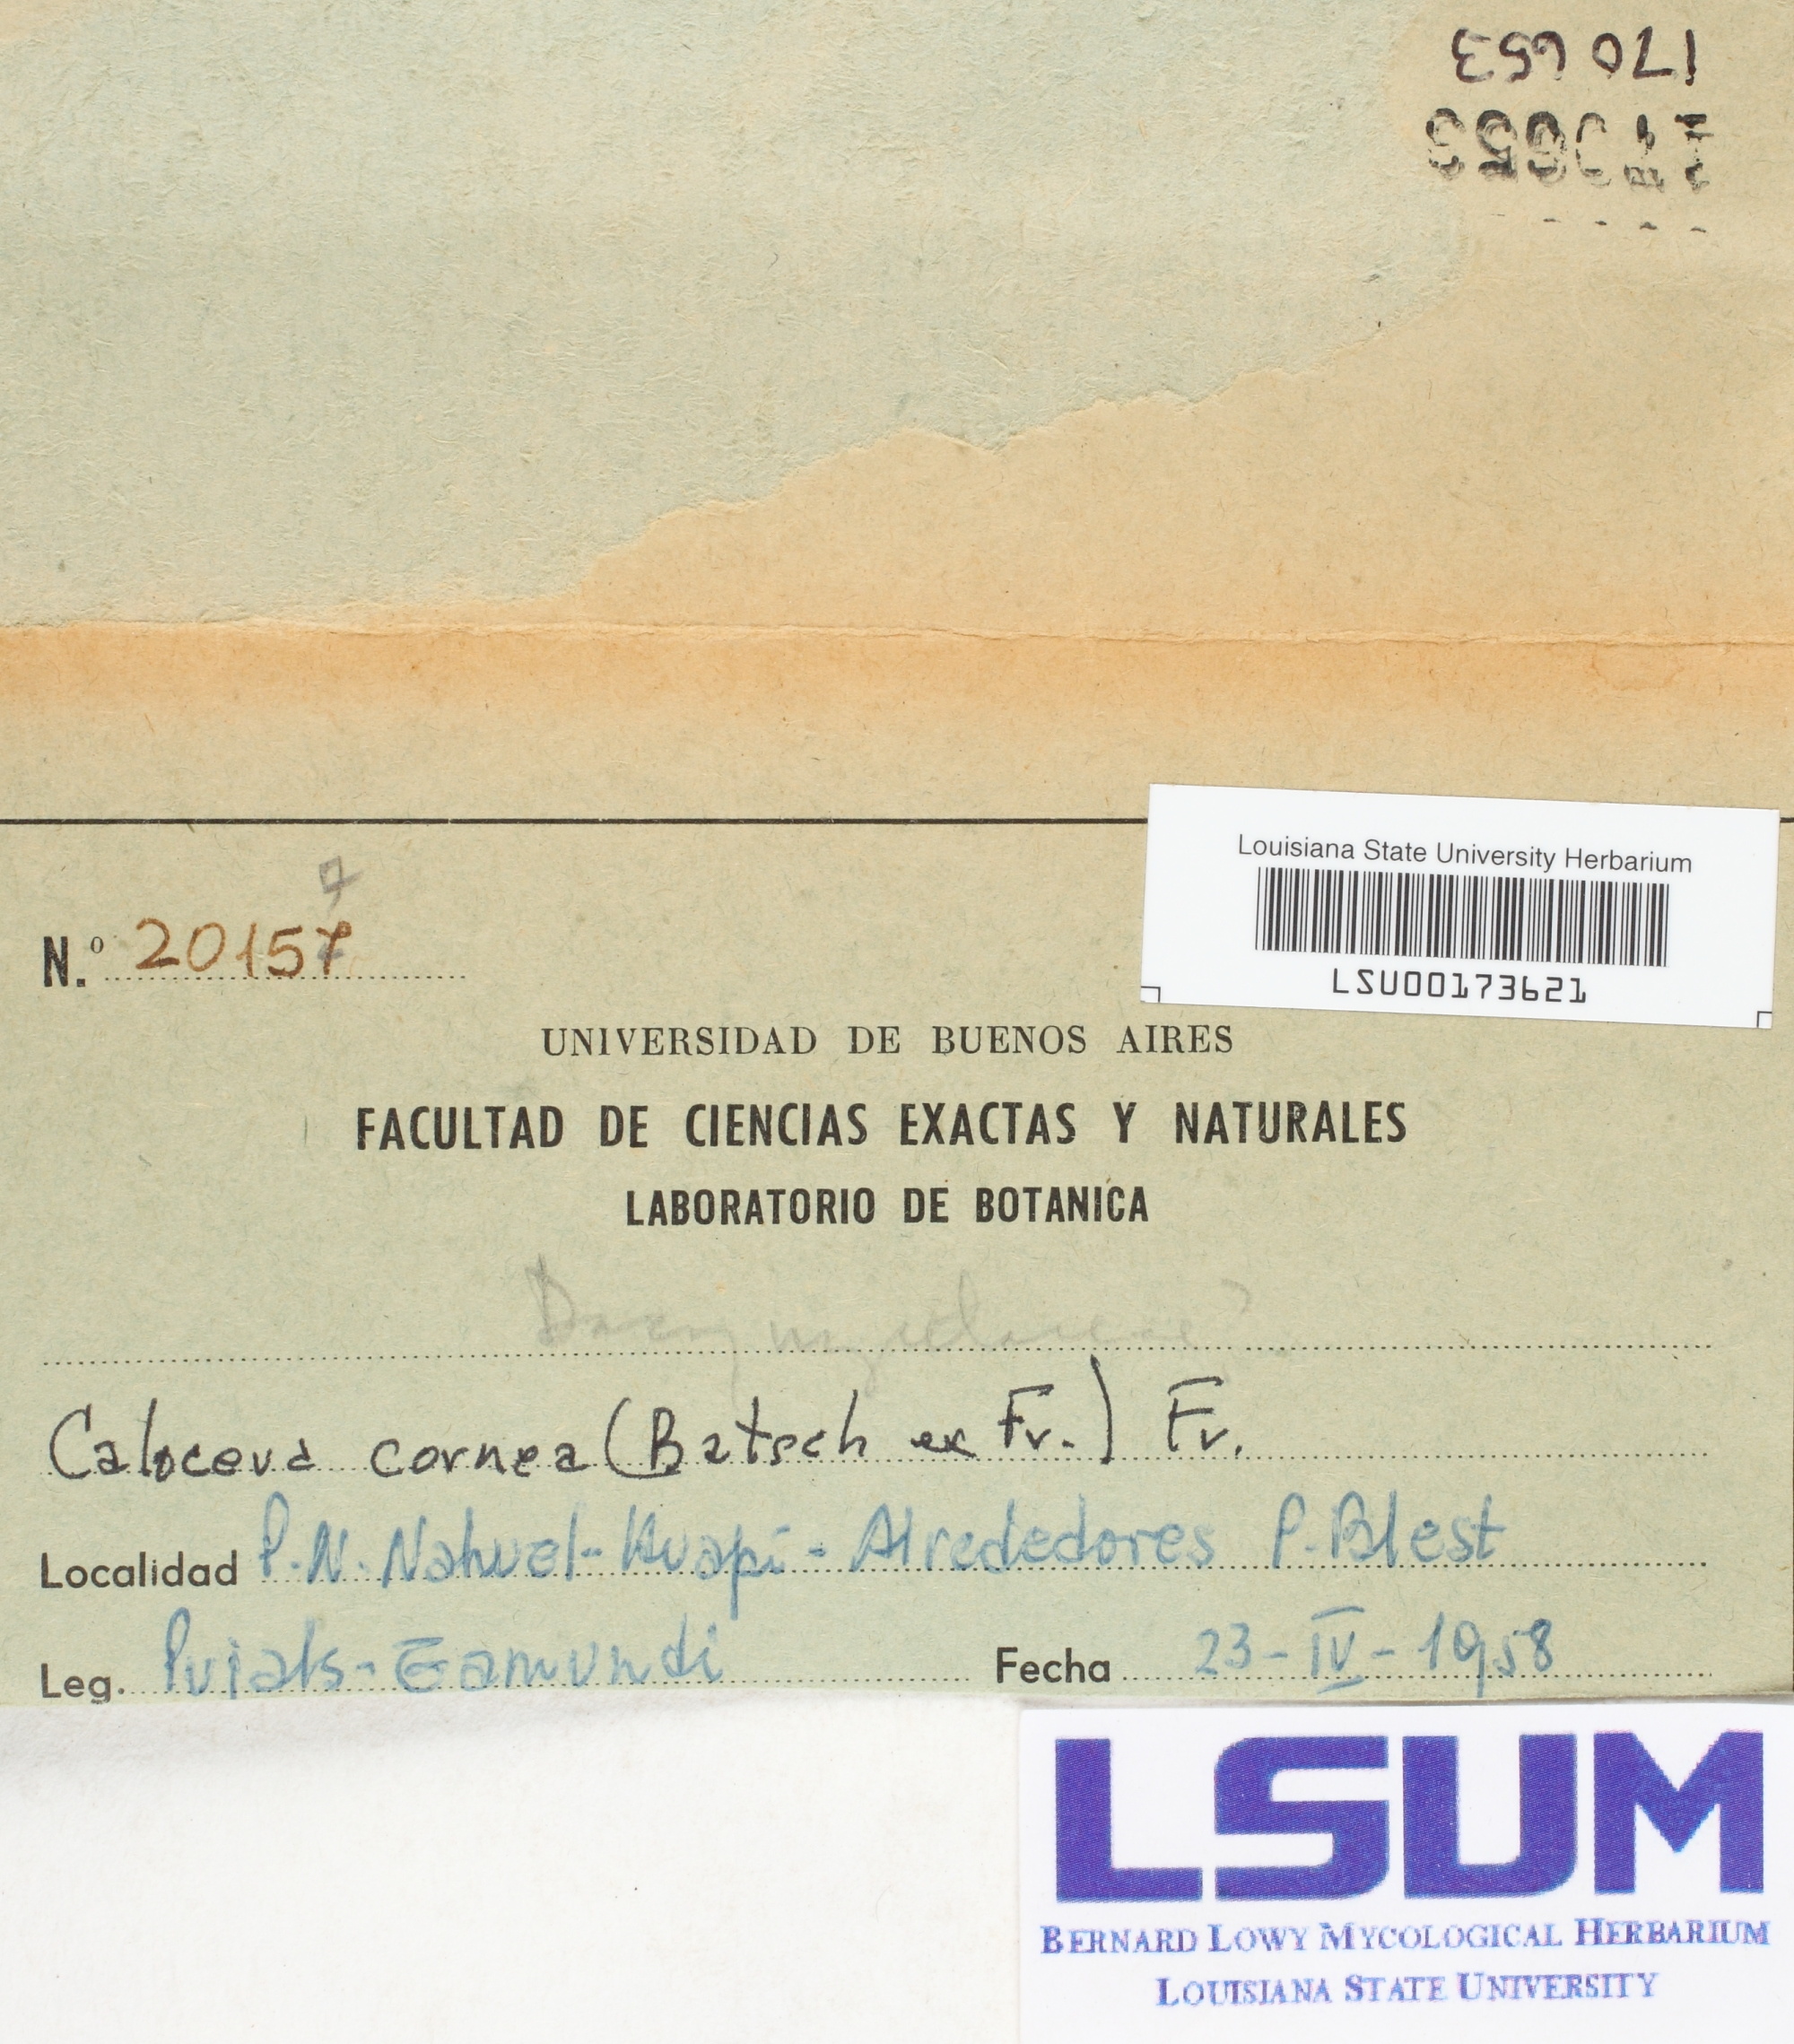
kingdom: Fungi
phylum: Basidiomycota
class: Dacrymycetes
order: Dacrymycetales
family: Dacrymycetaceae
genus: Calocera
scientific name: Calocera cornea
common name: Small stagshorn
